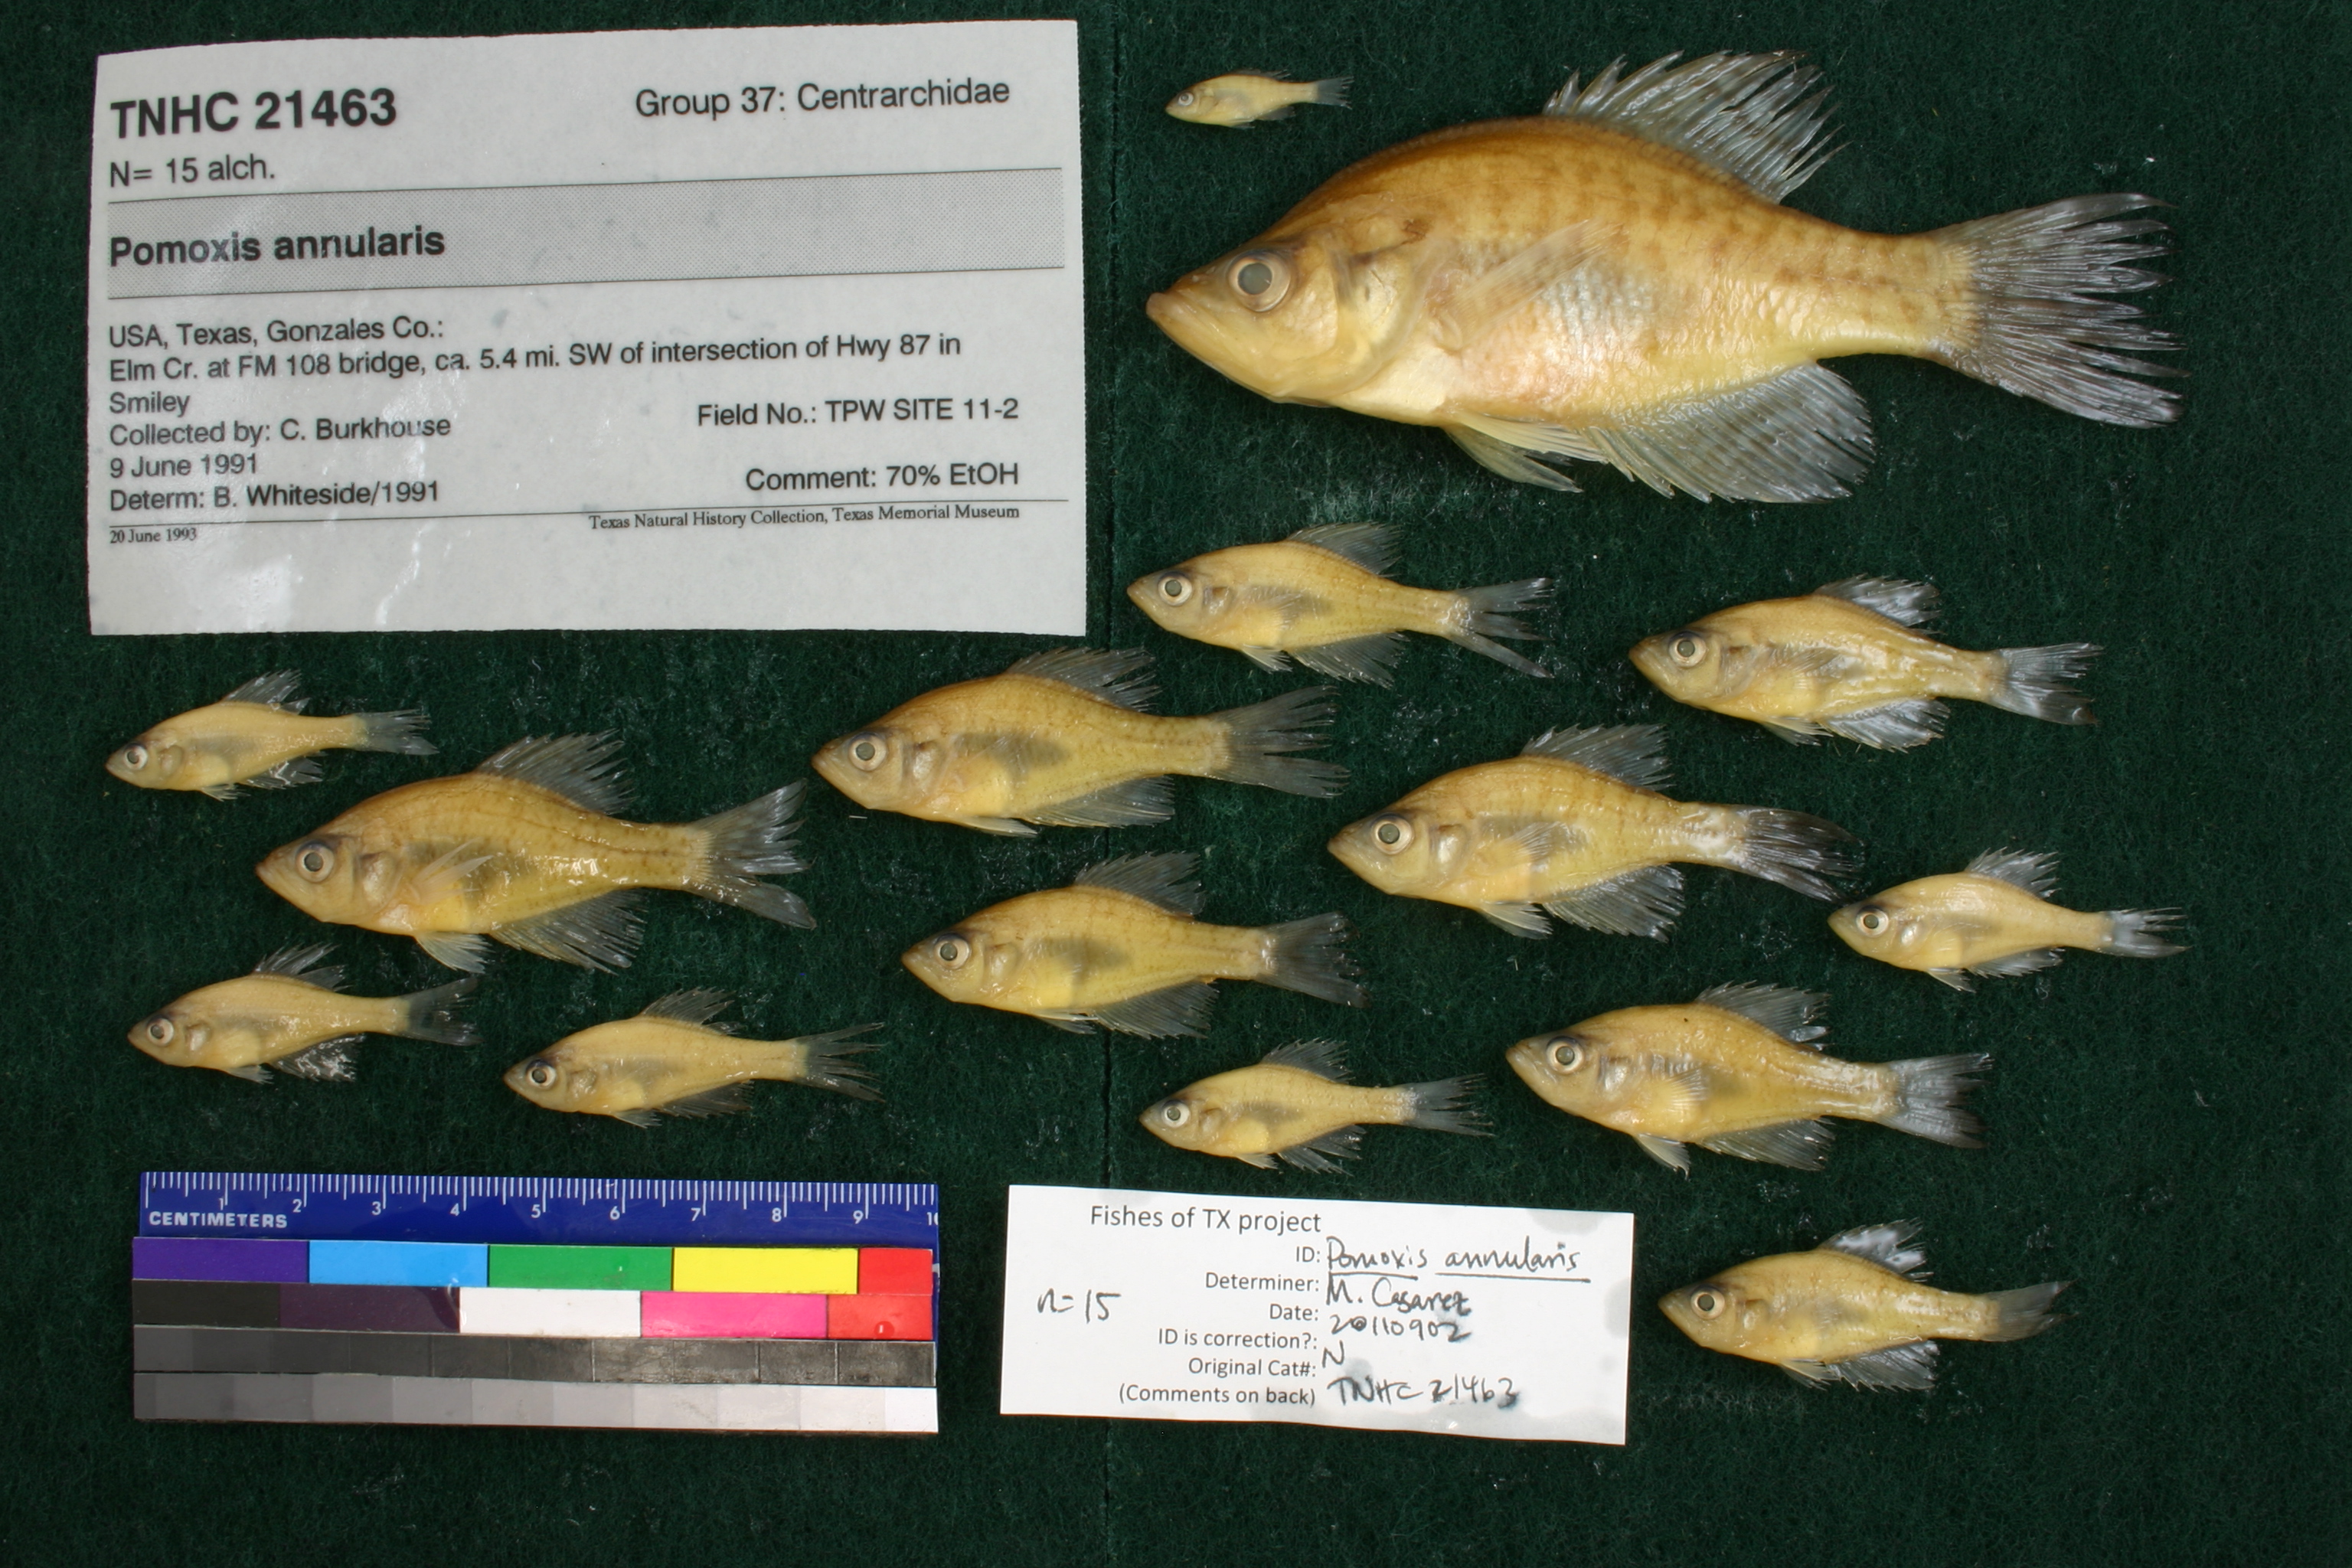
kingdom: Animalia
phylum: Chordata
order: Perciformes
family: Centrarchidae
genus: Pomoxis
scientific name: Pomoxis annularis
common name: White crappie
